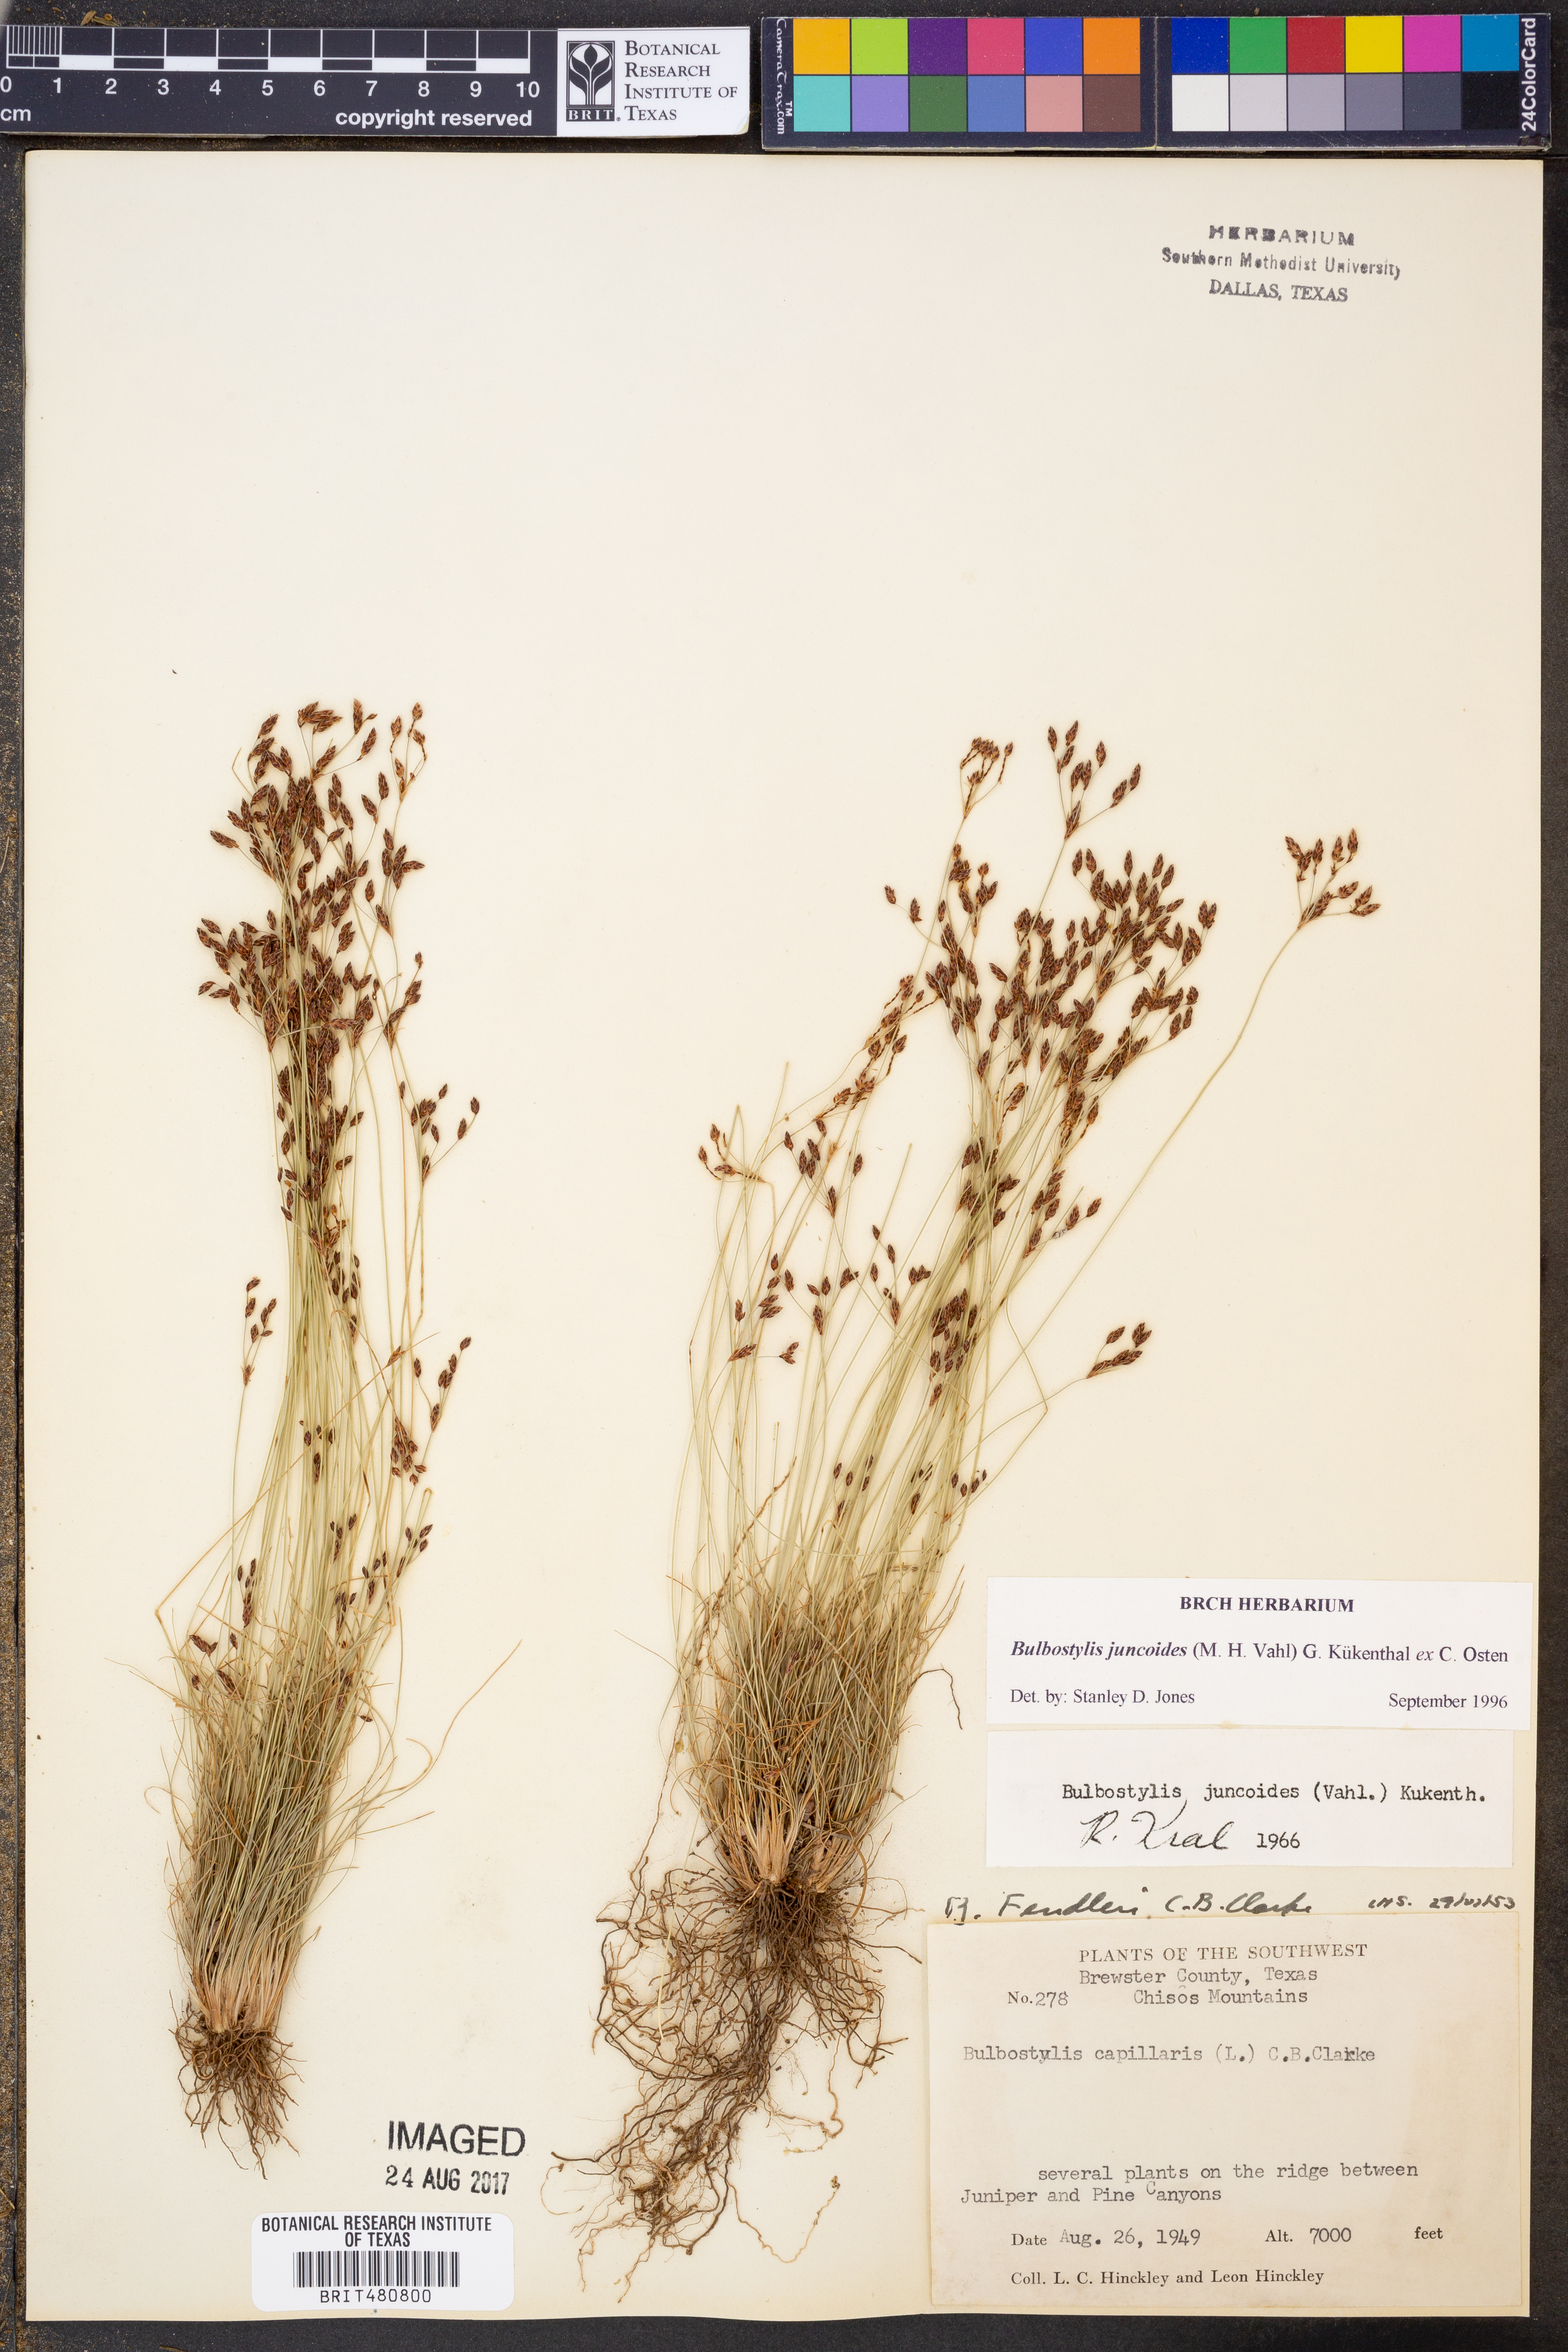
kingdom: Plantae
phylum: Tracheophyta
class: Liliopsida
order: Poales
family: Cyperaceae
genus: Bulbostylis
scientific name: Bulbostylis juncoides
